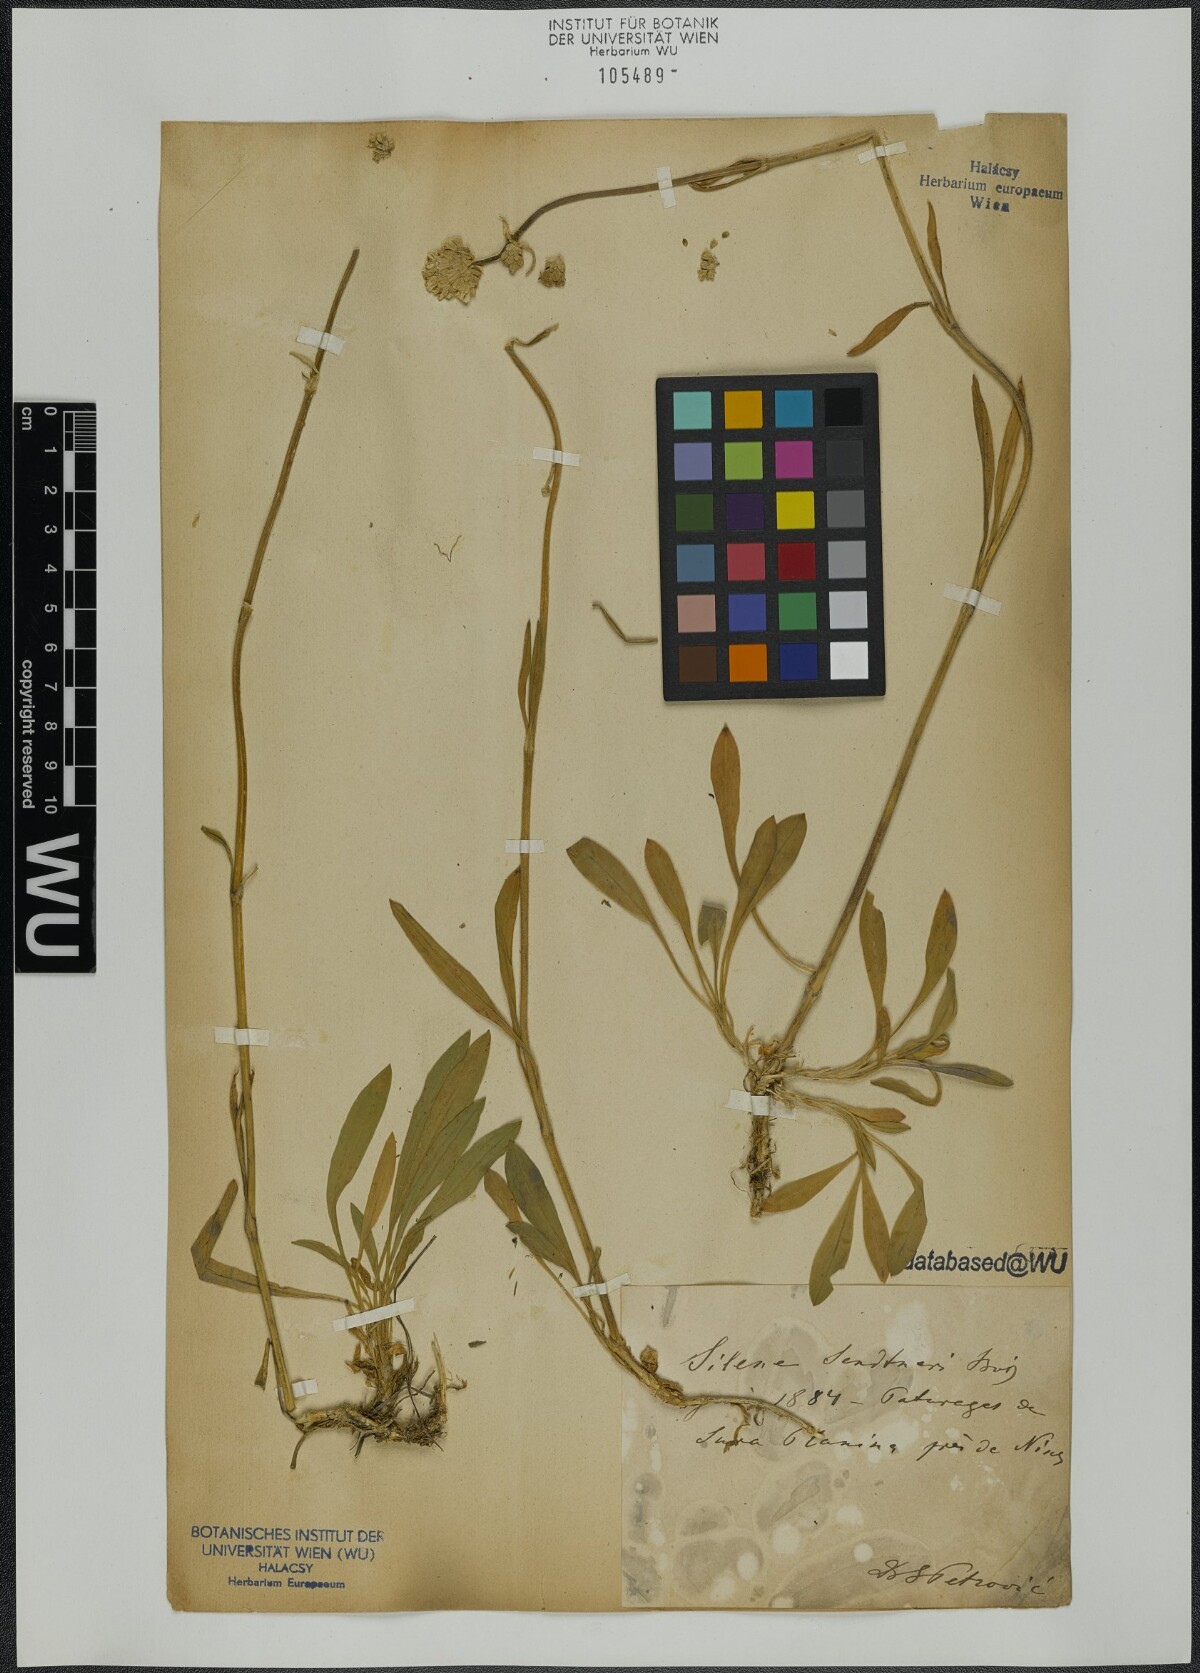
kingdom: Plantae
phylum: Tracheophyta
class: Magnoliopsida
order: Caryophyllales
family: Caryophyllaceae
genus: Silene
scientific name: Silene sendtneri
